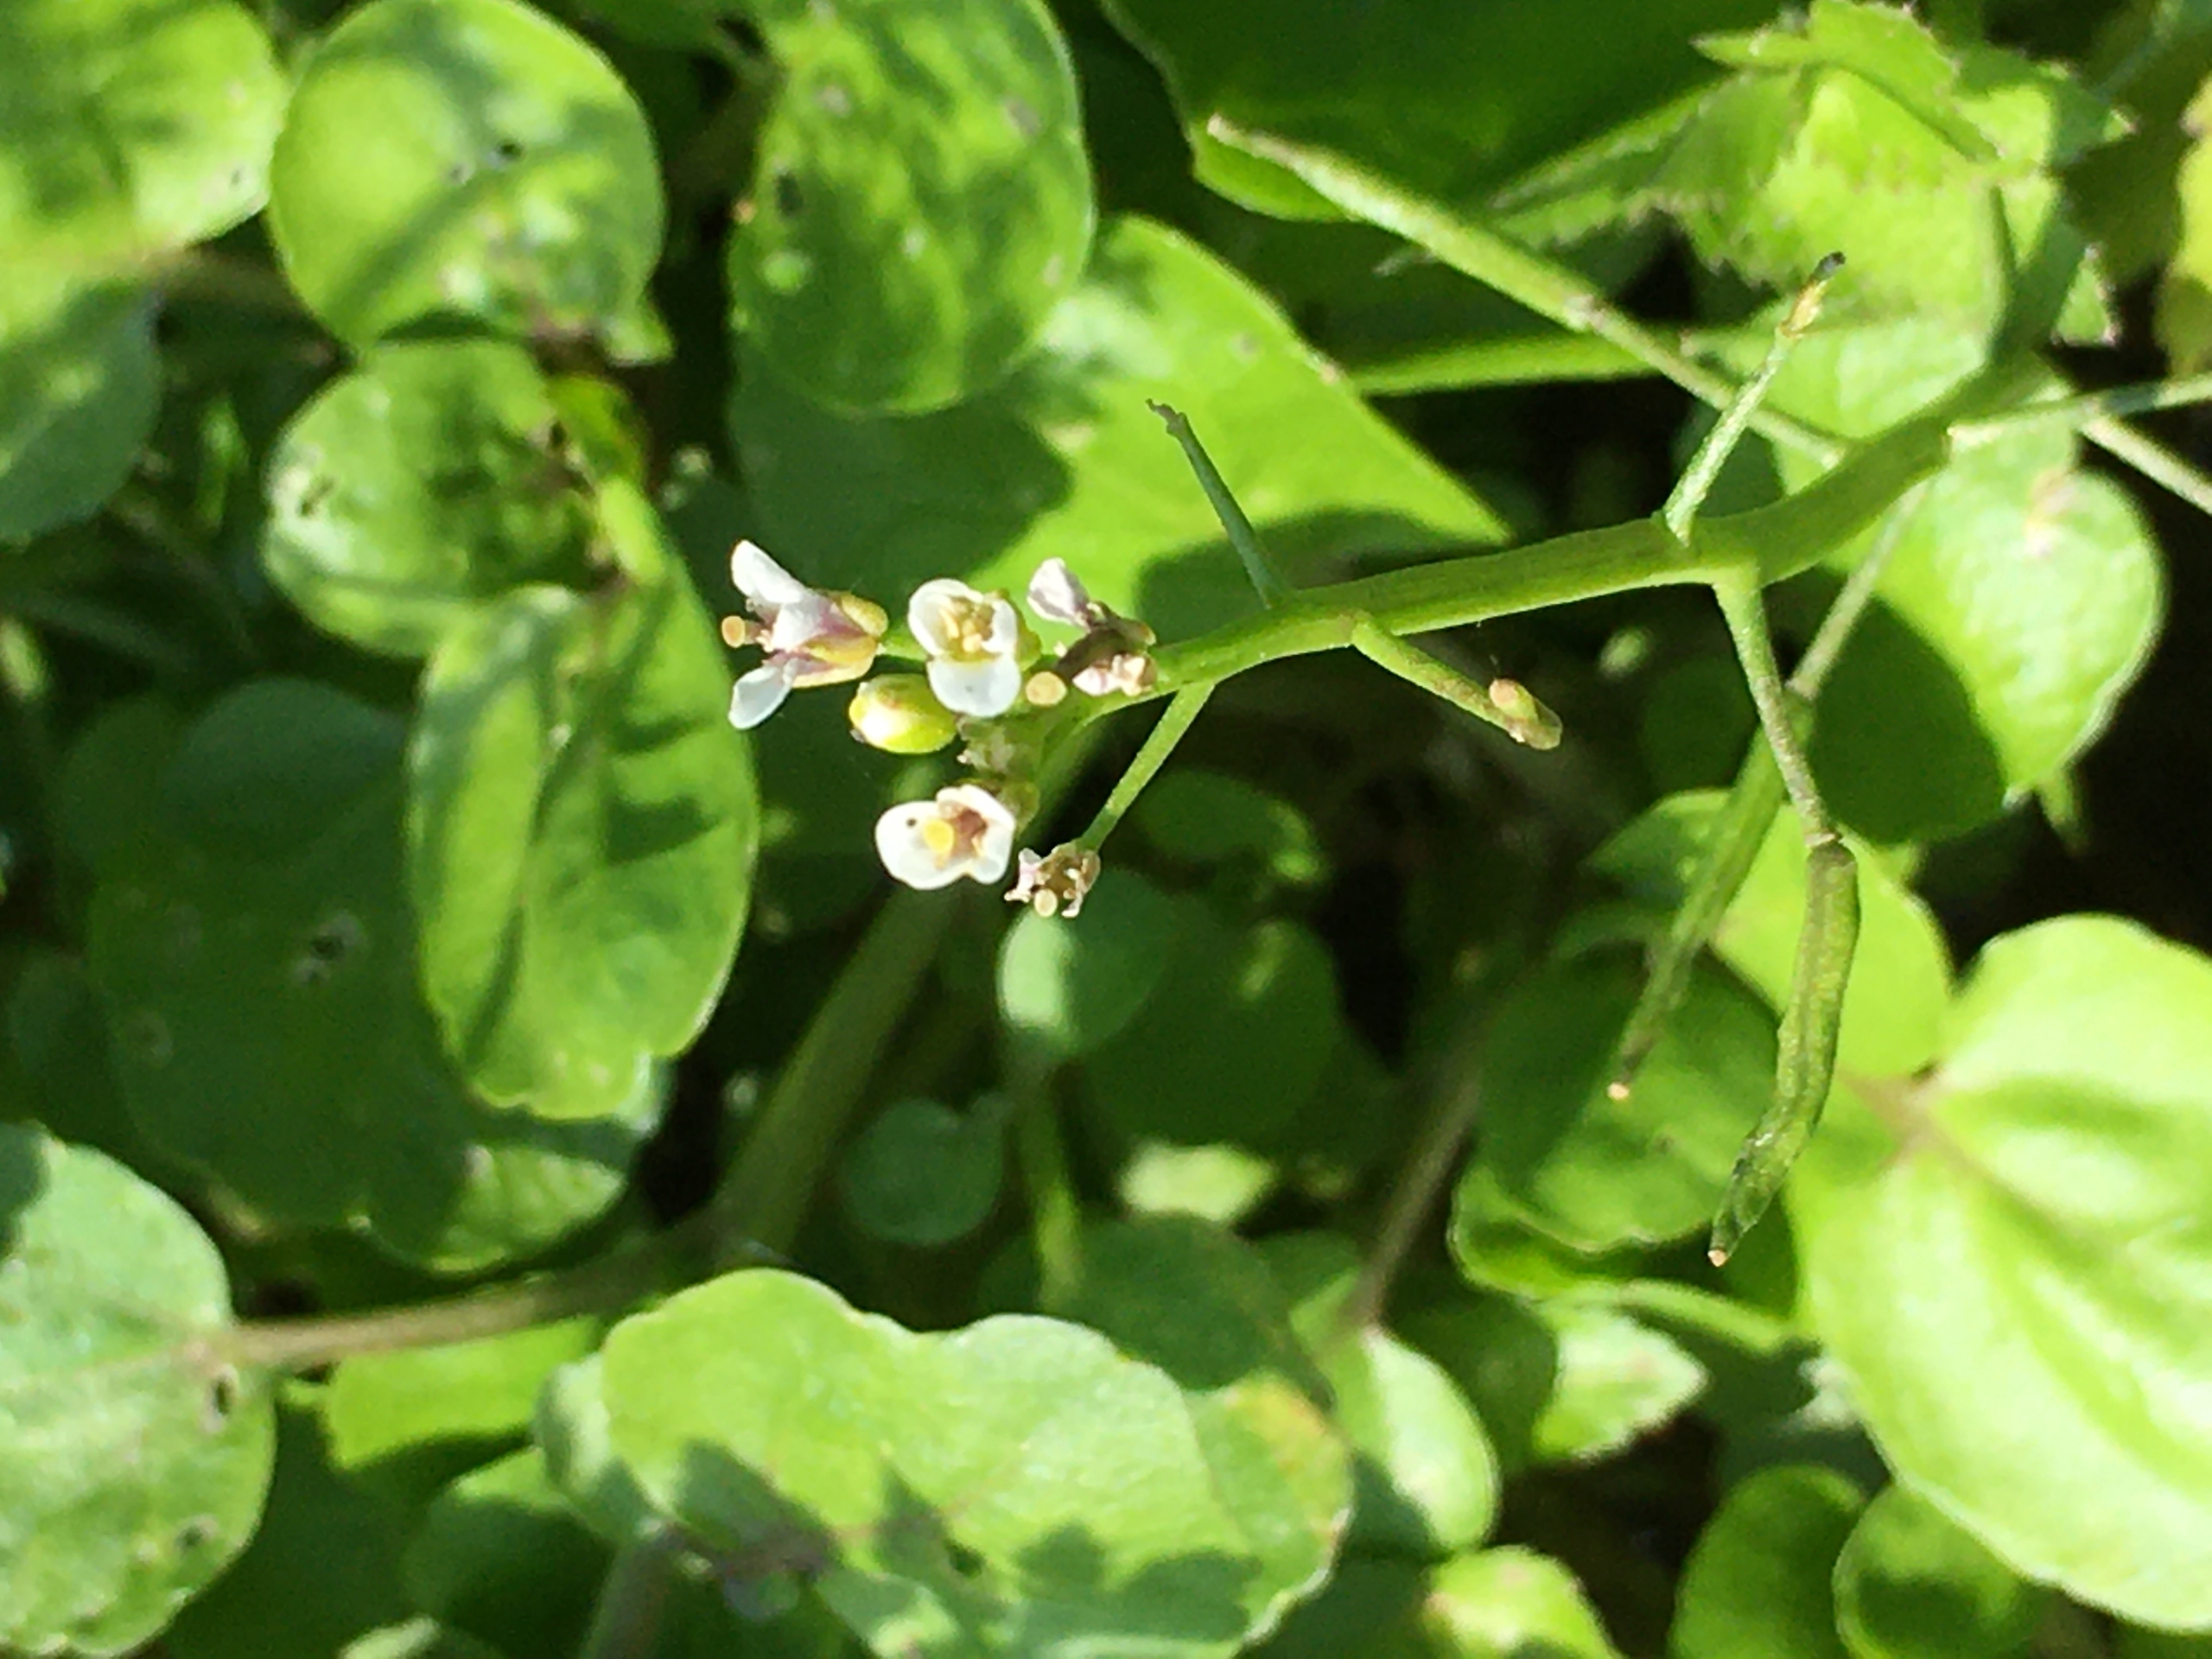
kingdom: Plantae
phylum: Tracheophyta
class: Magnoliopsida
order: Brassicales
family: Brassicaceae
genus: Nasturtium
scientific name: Nasturtium officinale
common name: Tykskulpet brøndkarse
